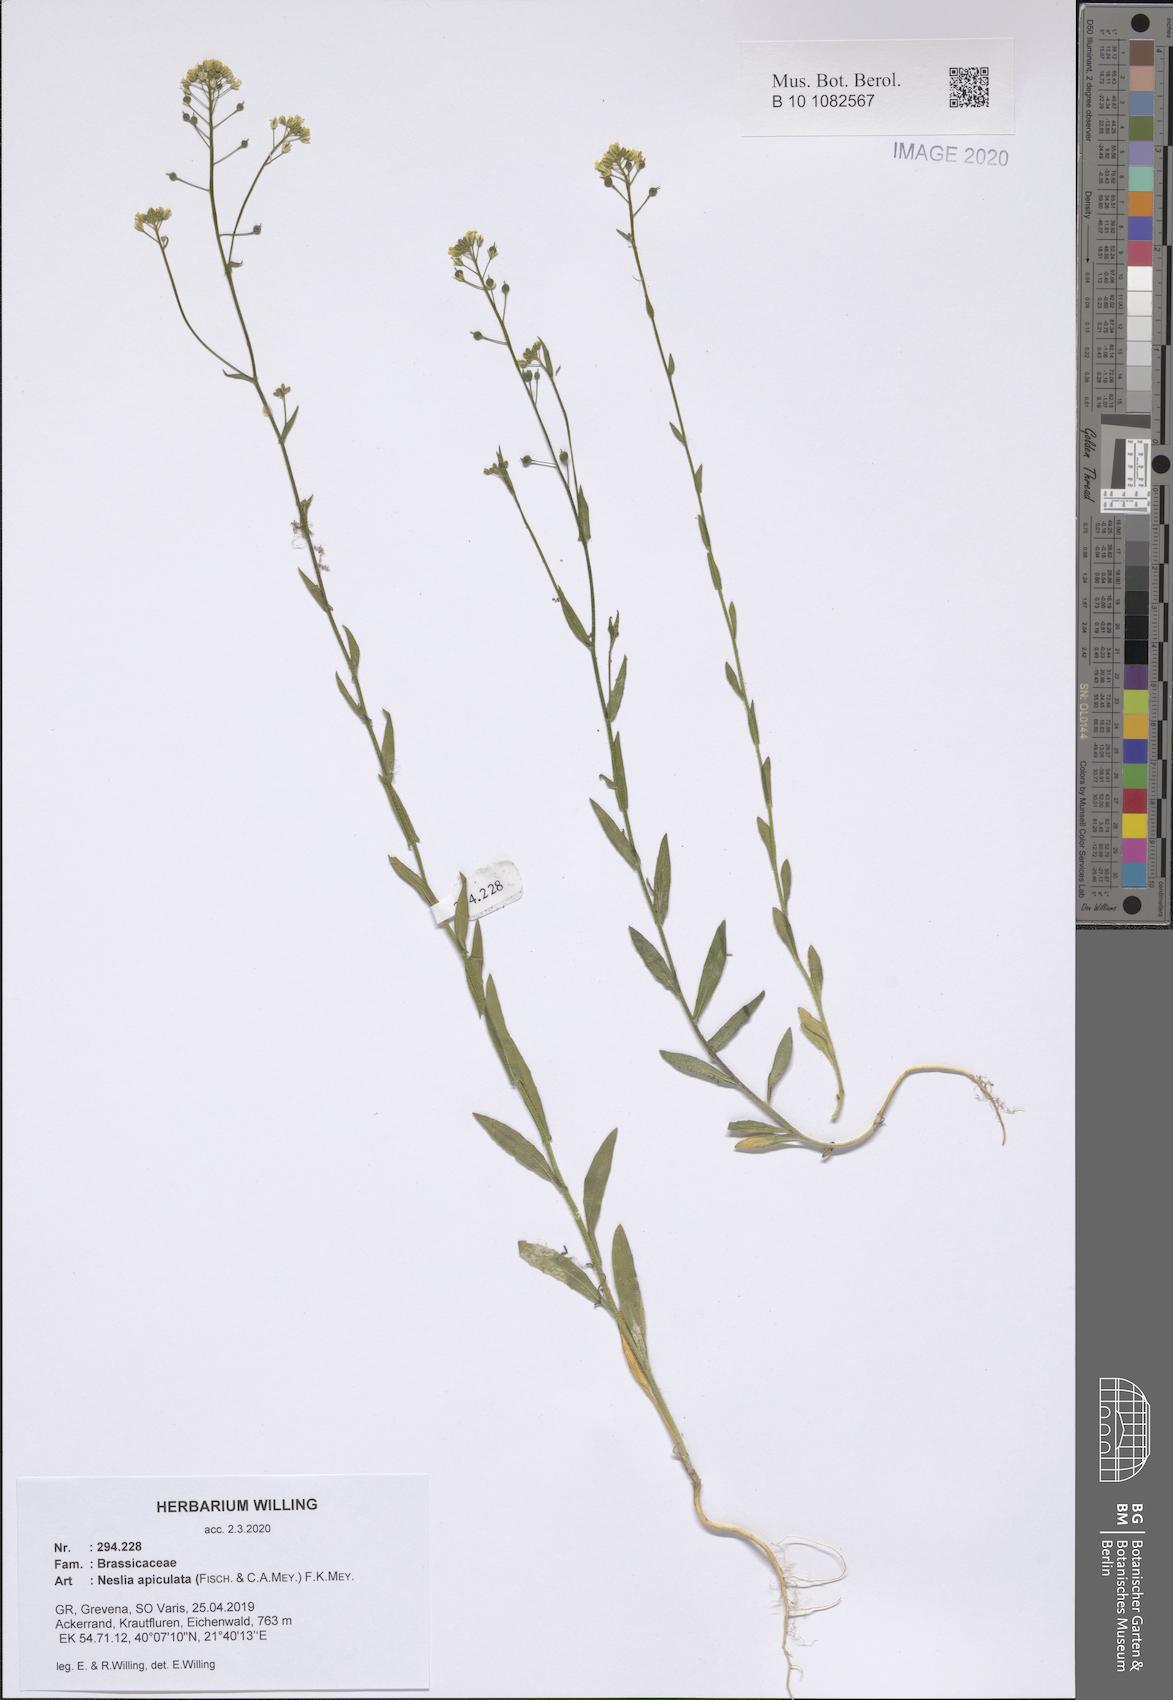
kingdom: Plantae
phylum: Tracheophyta
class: Magnoliopsida
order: Brassicales
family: Brassicaceae
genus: Neslia
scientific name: Neslia paniculata
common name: Ball mustard
